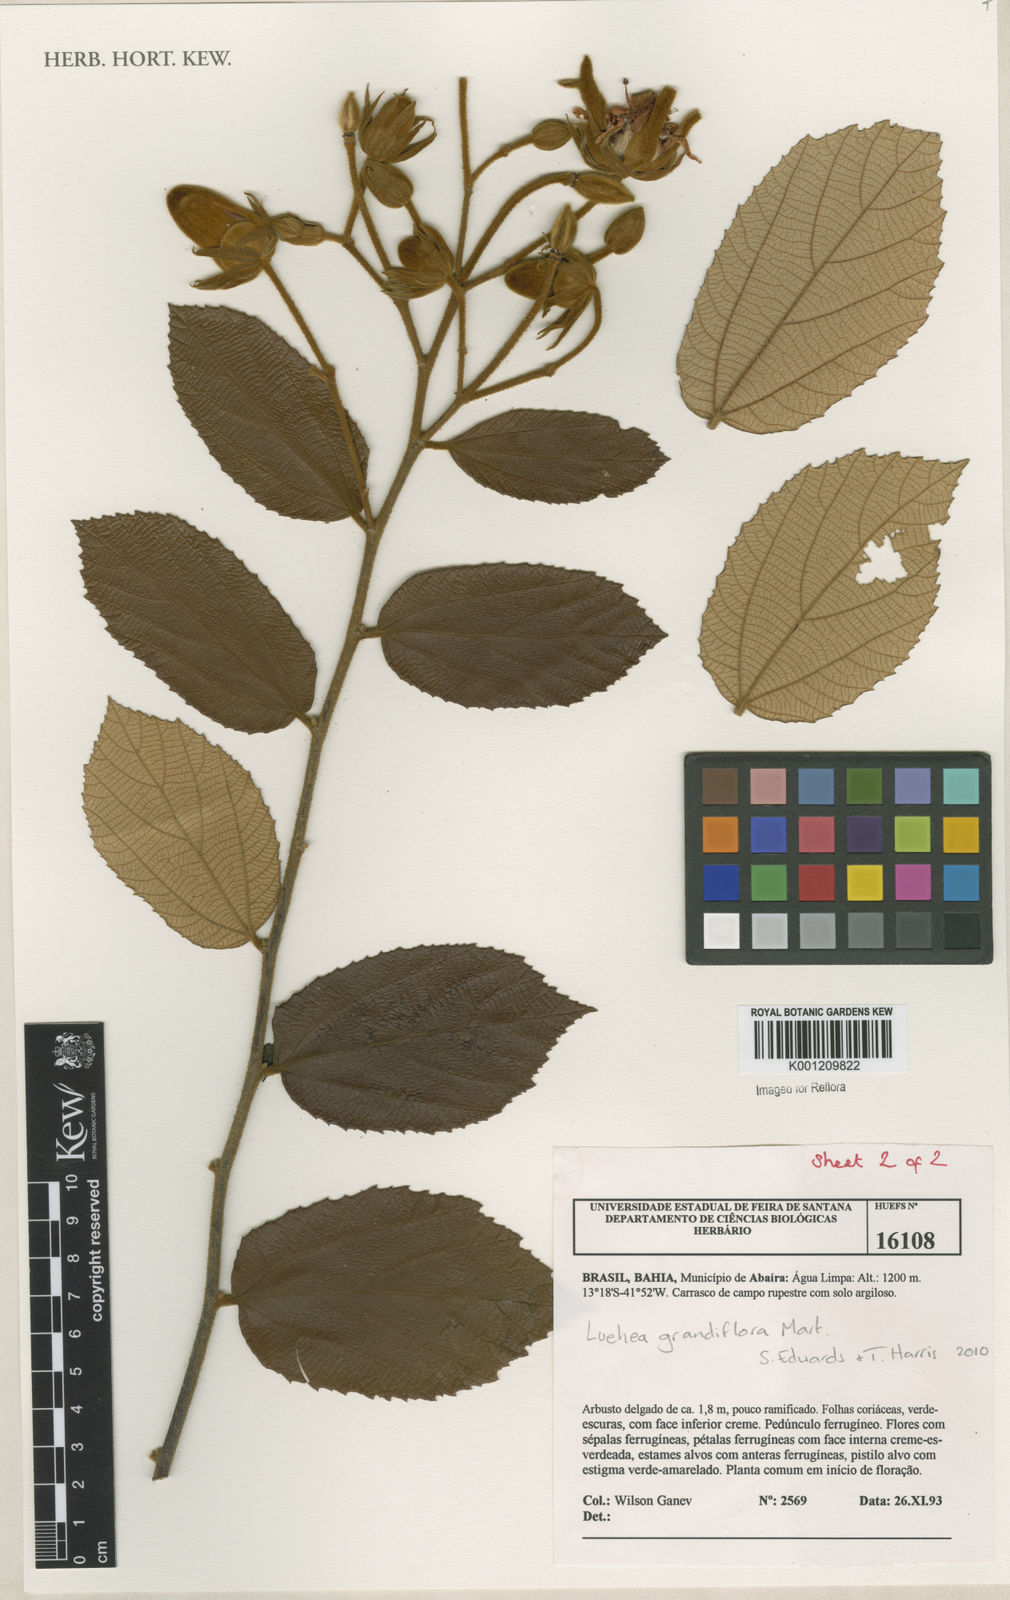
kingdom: Plantae
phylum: Tracheophyta
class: Magnoliopsida
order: Malvales
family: Malvaceae
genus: Luehea
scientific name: Luehea grandiflora
